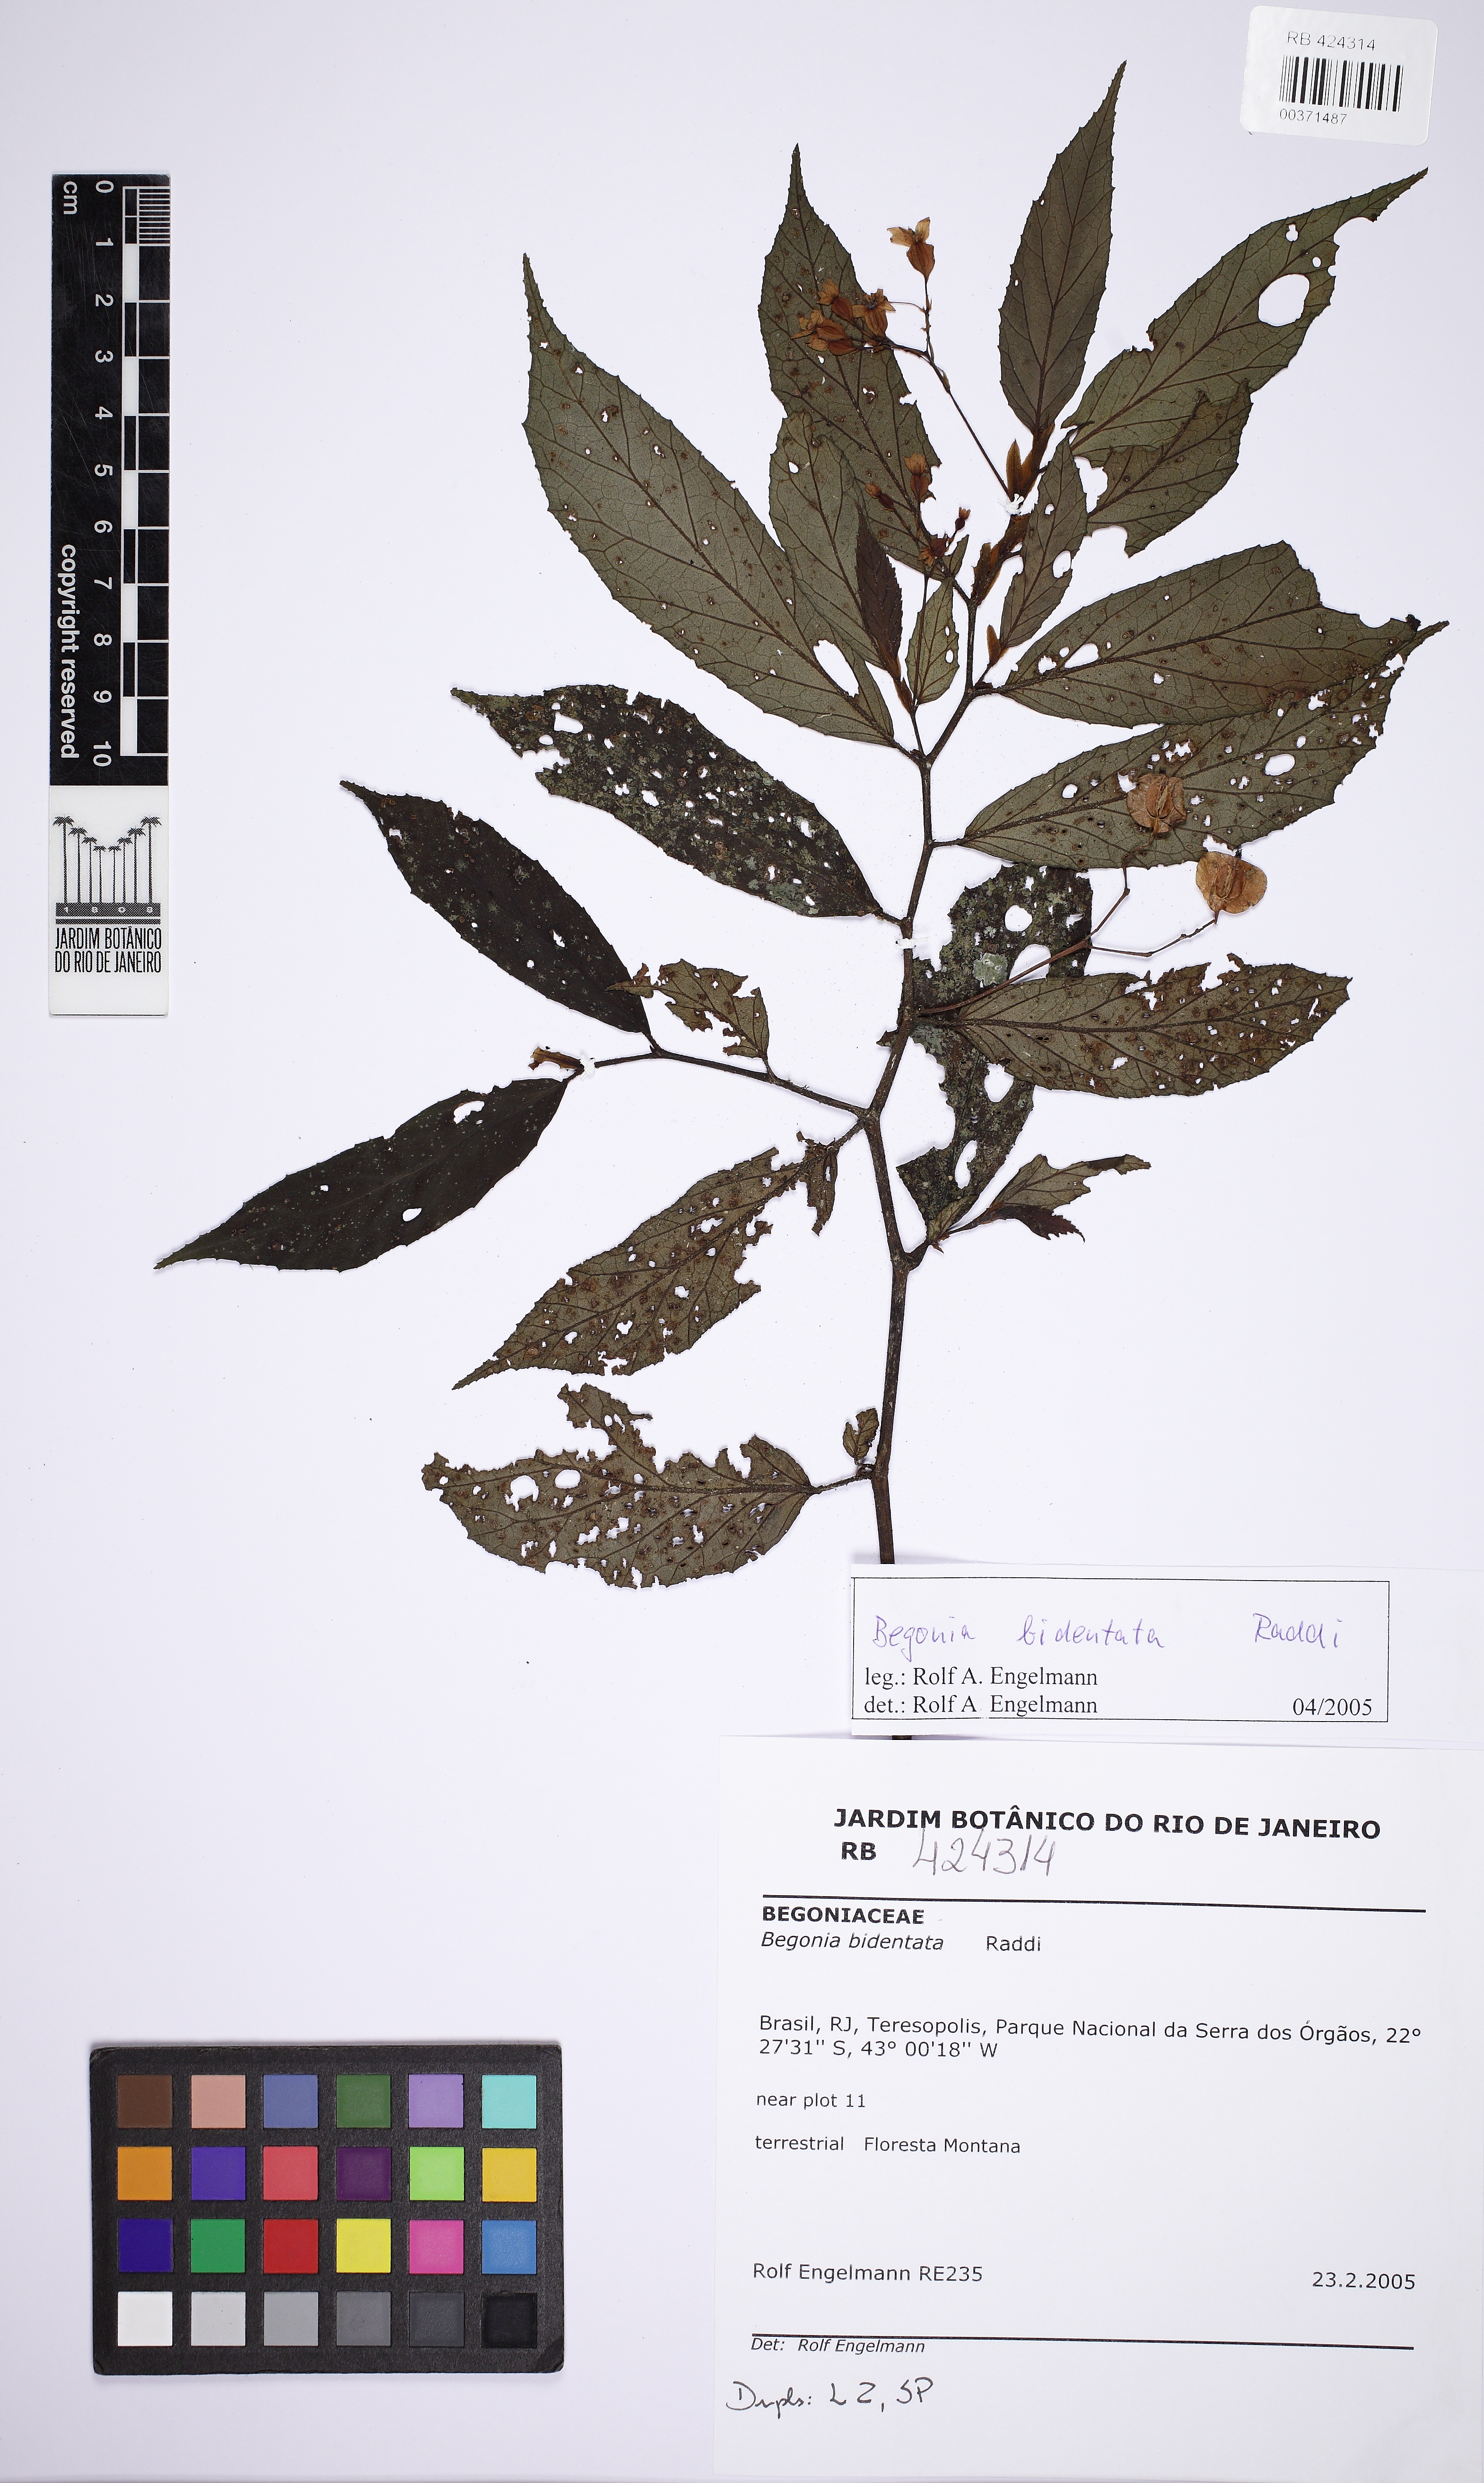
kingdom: Plantae
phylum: Tracheophyta
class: Magnoliopsida
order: Cucurbitales
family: Begoniaceae
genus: Begonia
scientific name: Begonia bidentata
